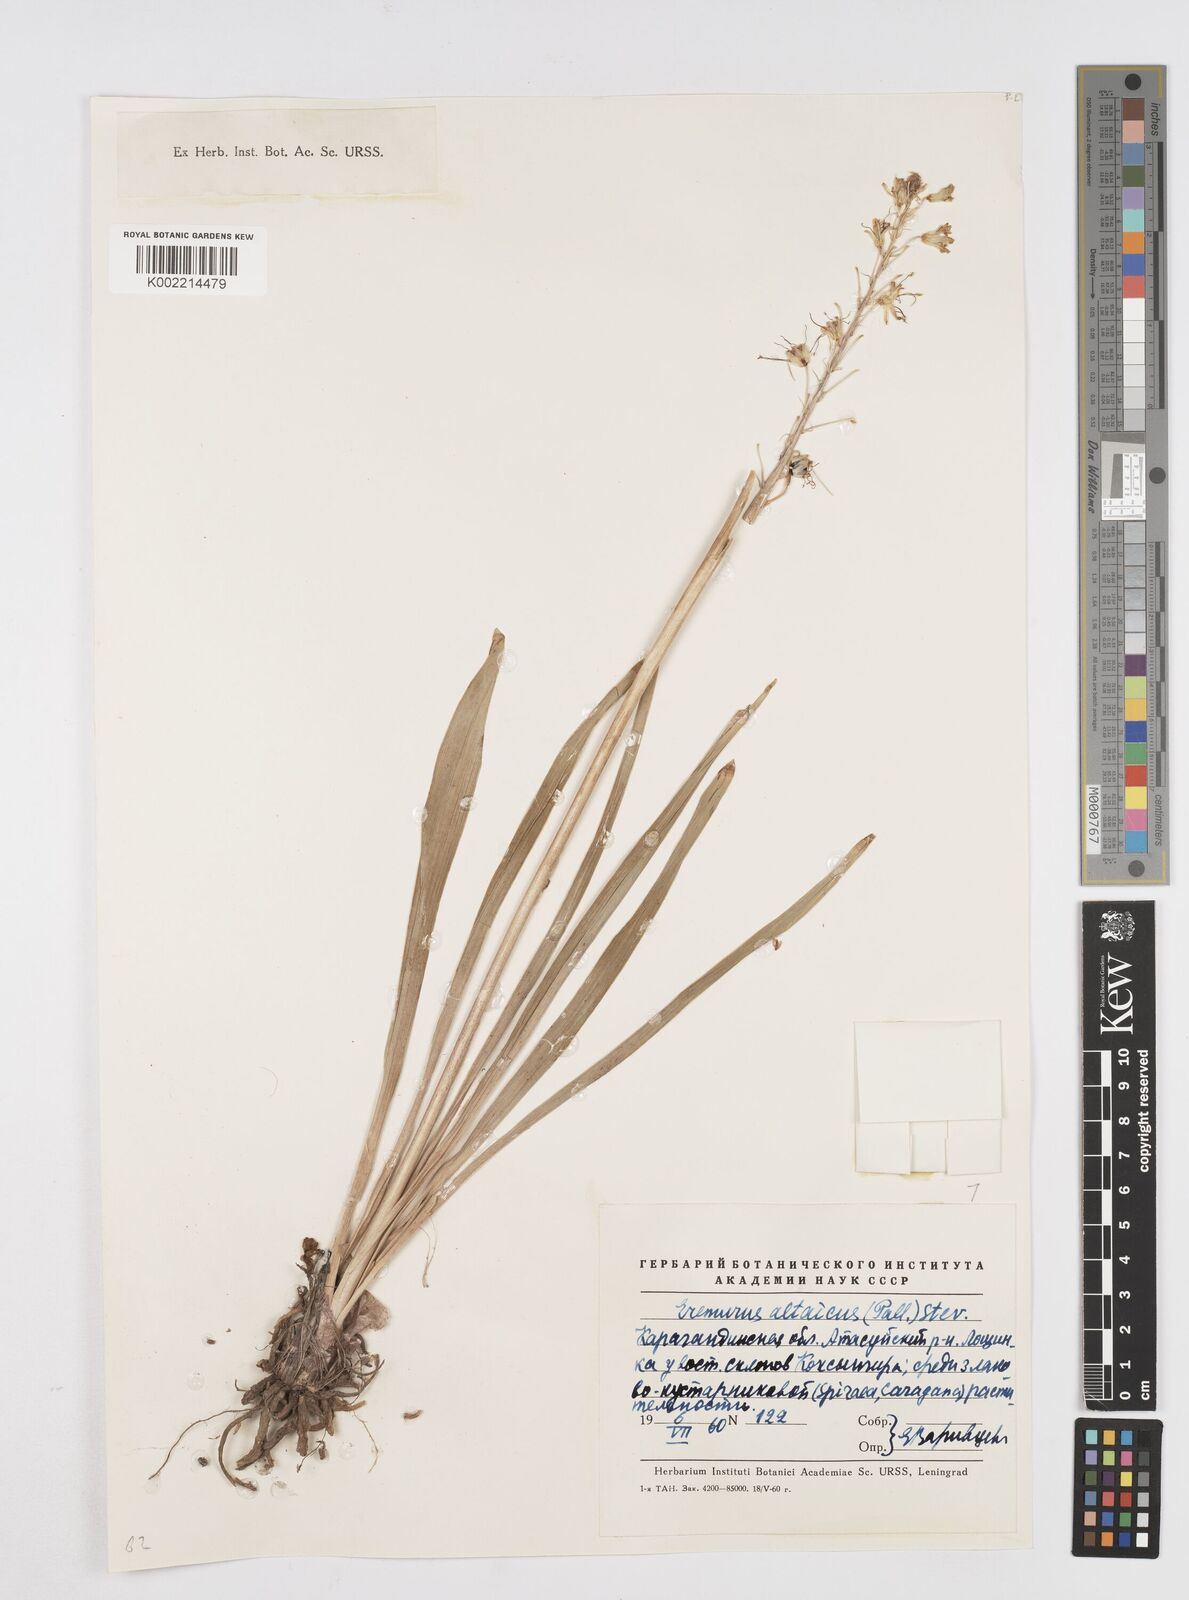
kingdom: Plantae
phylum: Tracheophyta
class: Liliopsida
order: Asparagales
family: Asphodelaceae
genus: Eremurus
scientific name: Eremurus altaicus
